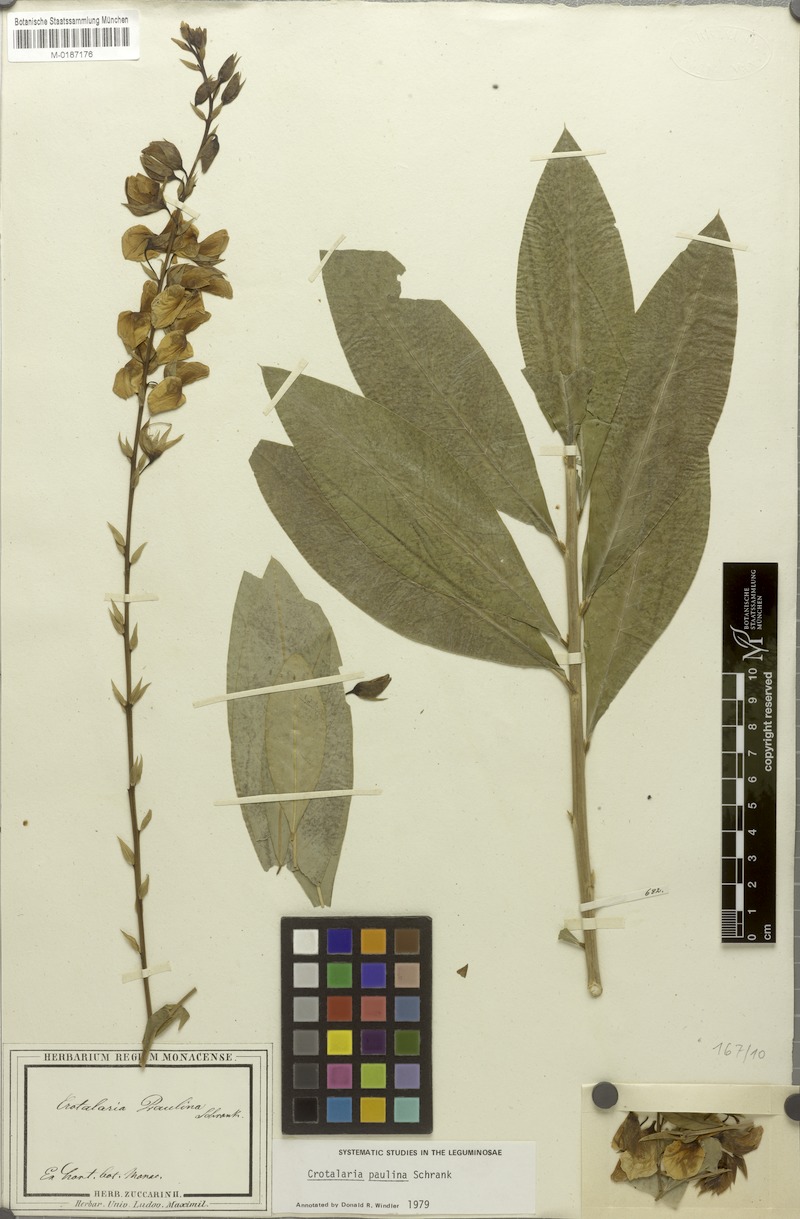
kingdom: Plantae
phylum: Tracheophyta
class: Magnoliopsida
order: Fabales
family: Fabaceae
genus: Crotalaria
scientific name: Crotalaria paulina
